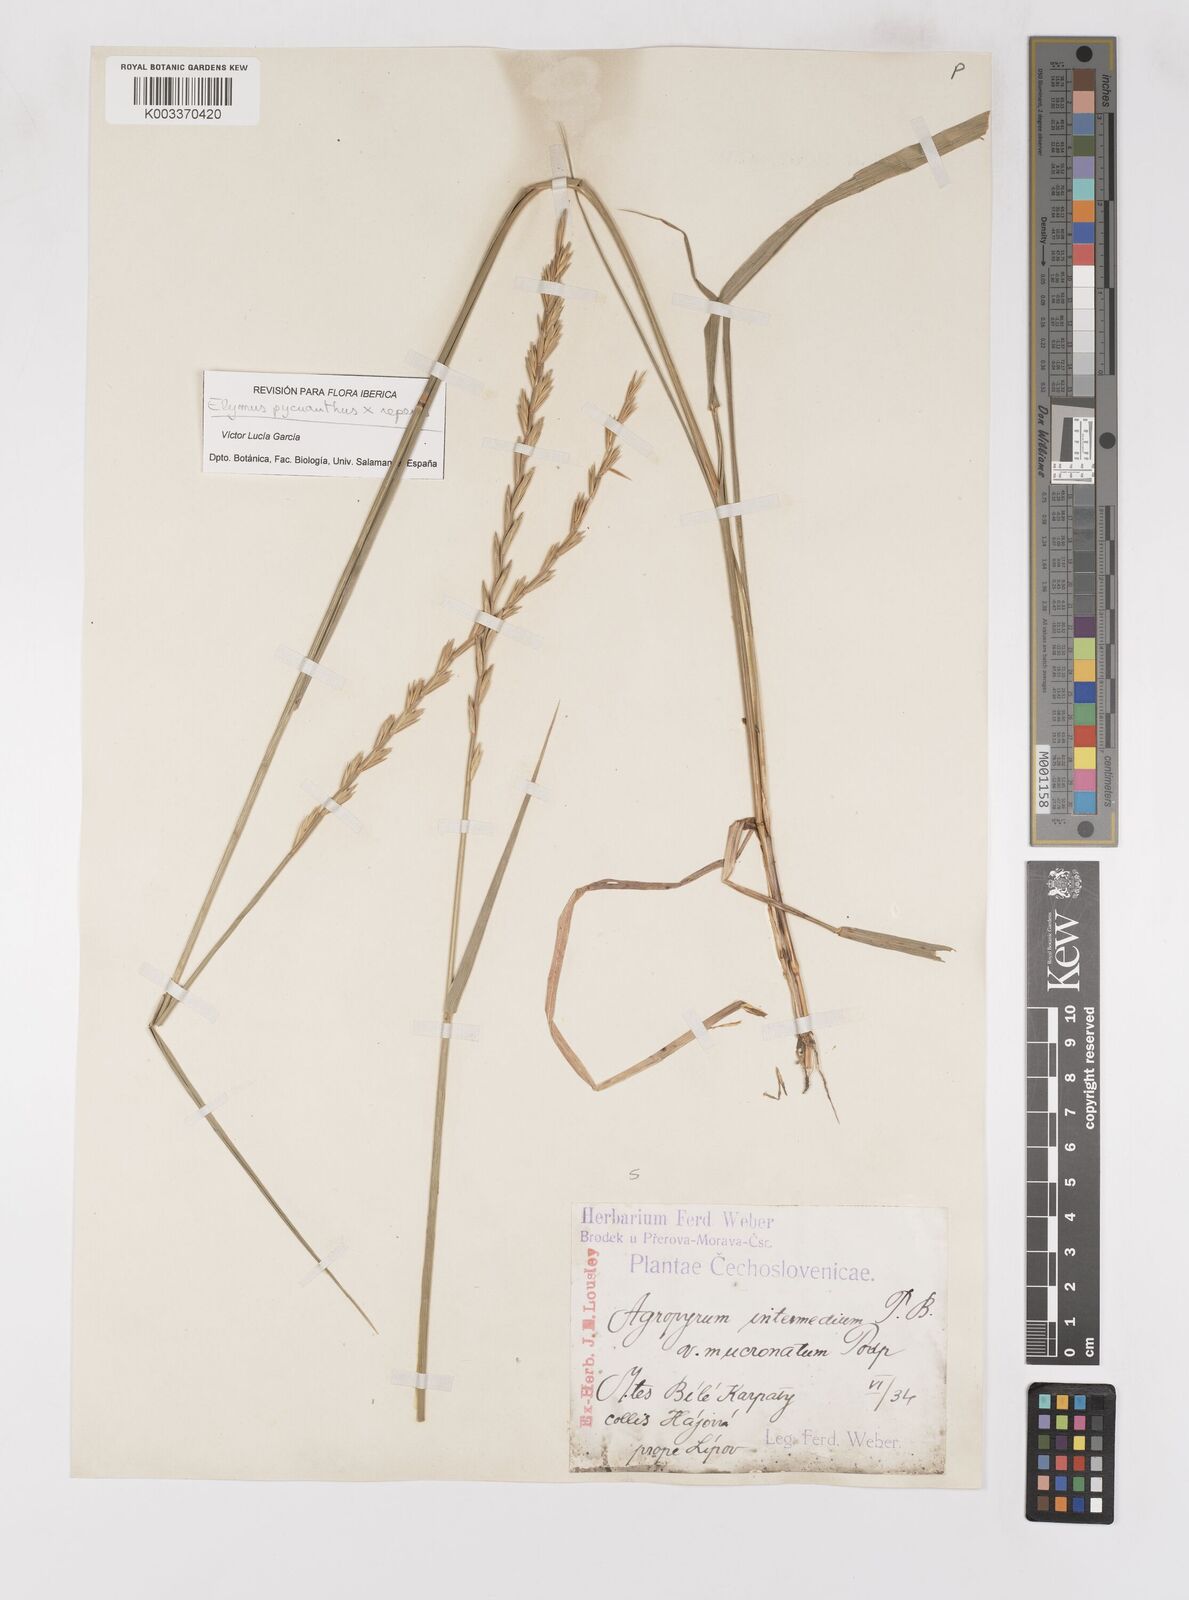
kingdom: Plantae
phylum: Tracheophyta
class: Liliopsida
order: Poales
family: Poaceae
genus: Elymus
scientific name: Elymus oliveri
